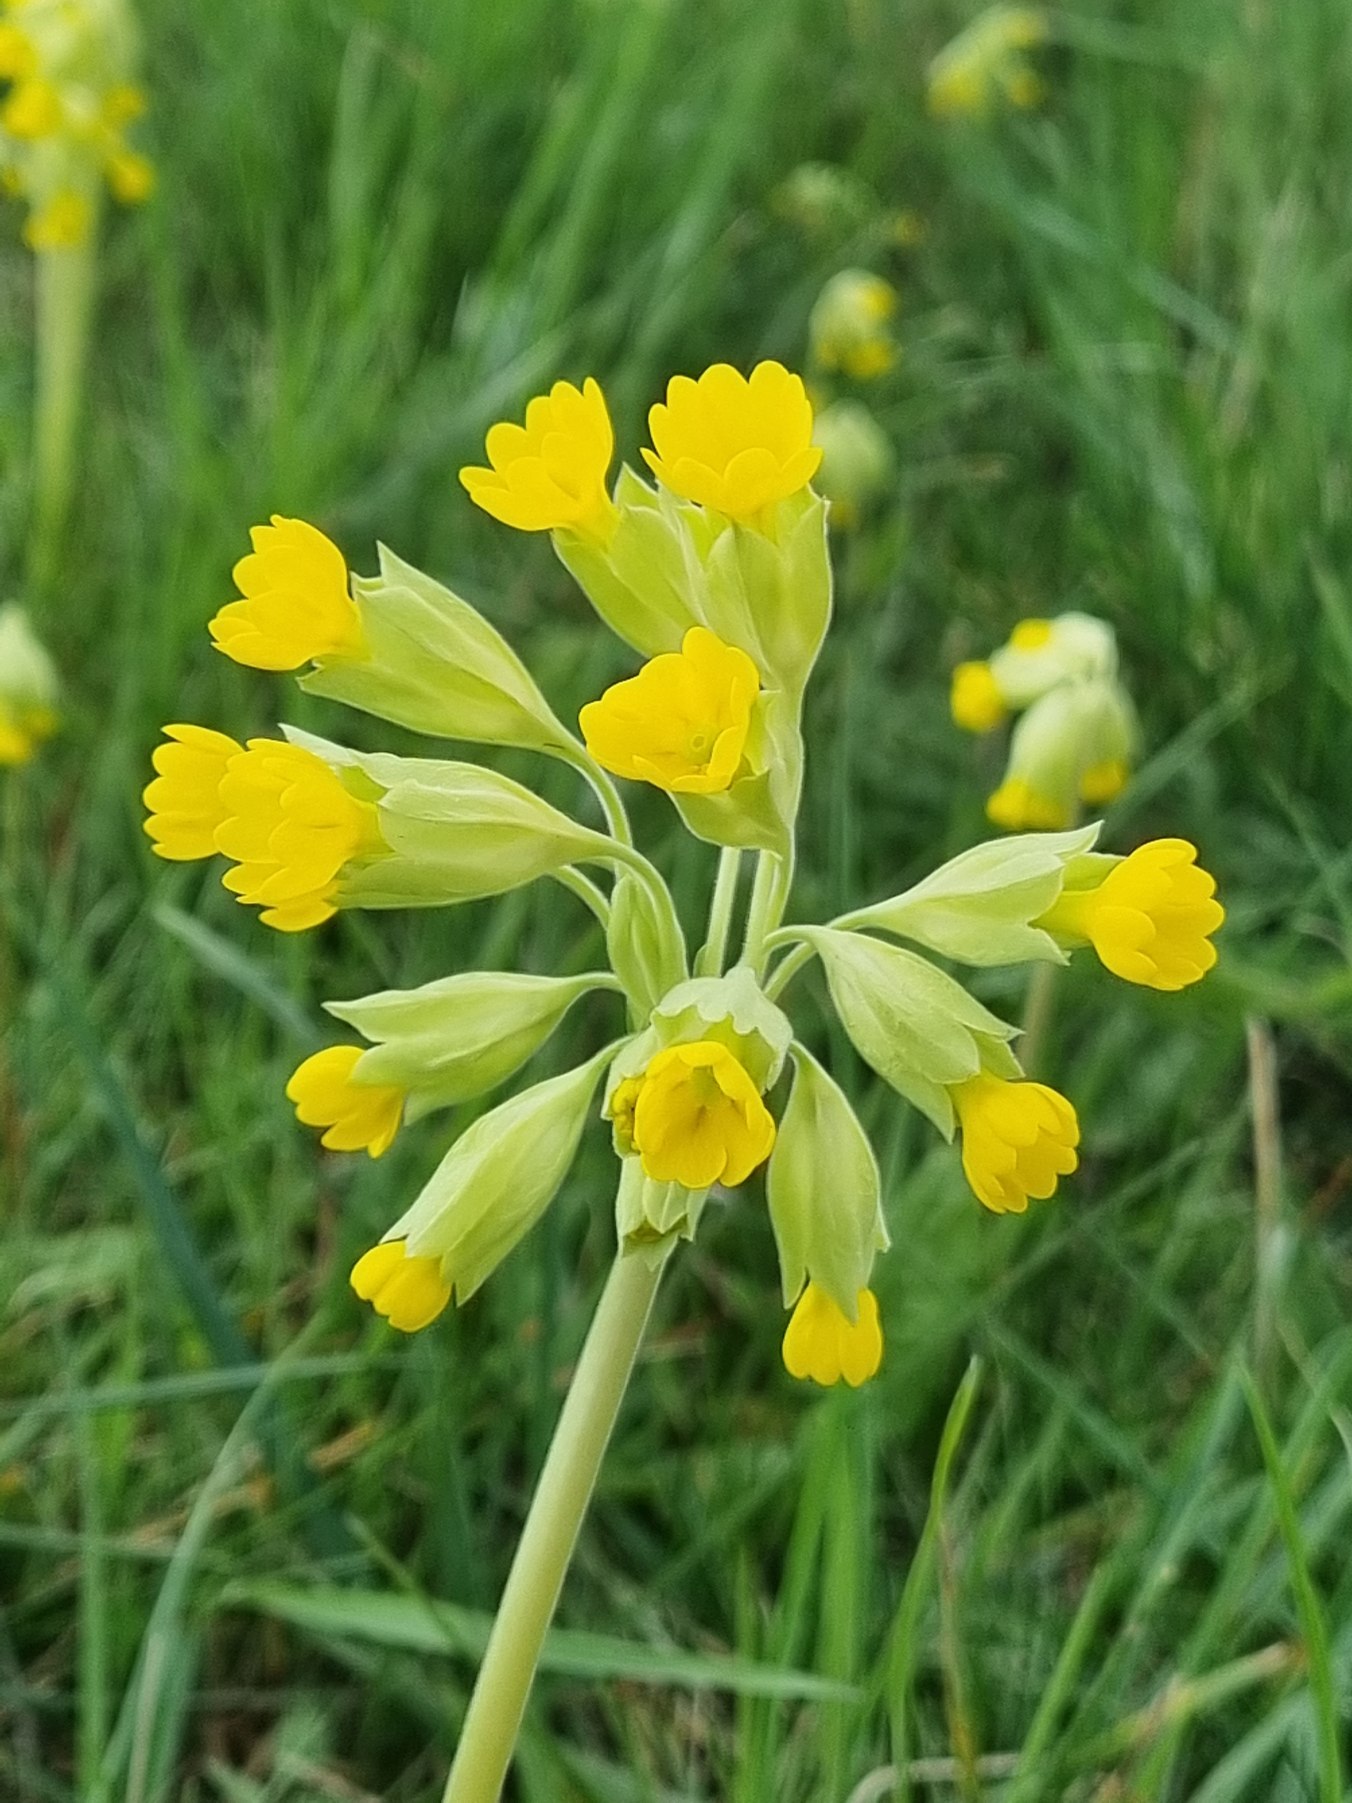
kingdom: Plantae
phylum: Tracheophyta
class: Magnoliopsida
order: Ericales
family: Primulaceae
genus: Primula
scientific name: Primula veris
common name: Hulkravet kodriver
